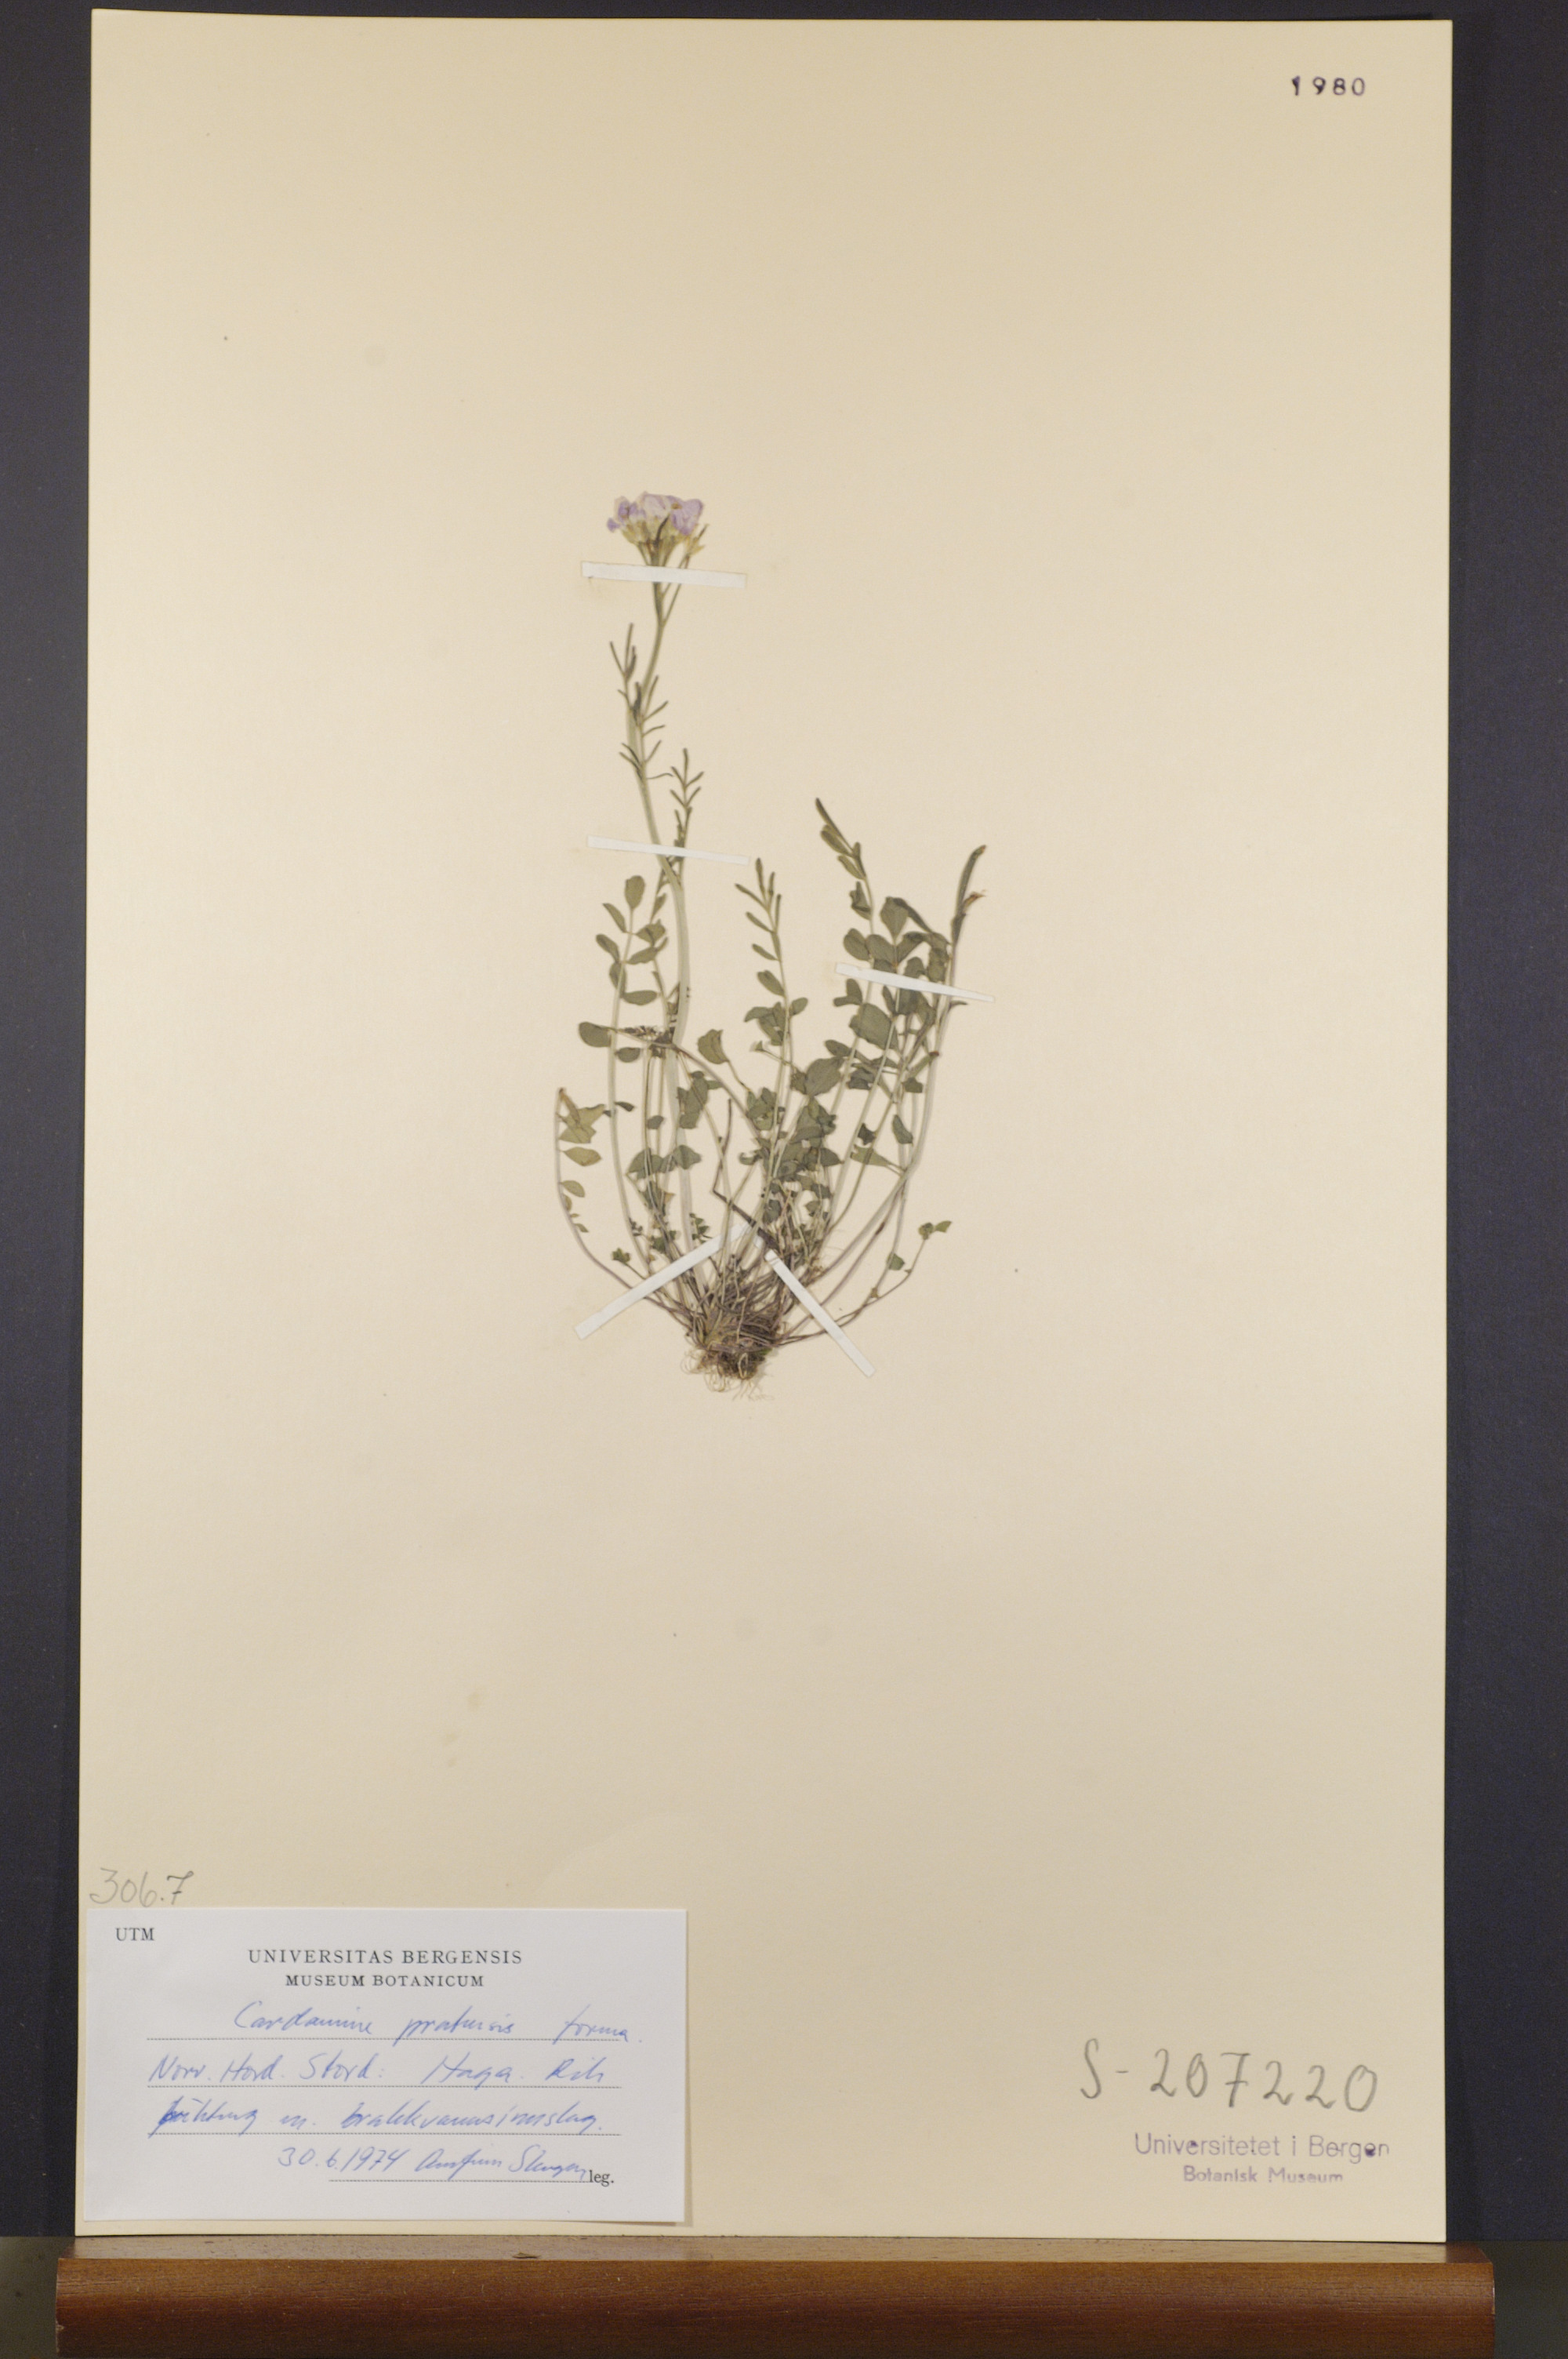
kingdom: Plantae
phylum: Tracheophyta
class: Magnoliopsida
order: Brassicales
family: Brassicaceae
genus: Cardamine
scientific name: Cardamine pratensis
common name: Cuckoo flower
